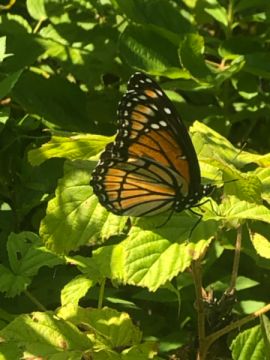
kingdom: Animalia
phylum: Arthropoda
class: Insecta
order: Lepidoptera
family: Nymphalidae
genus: Limenitis
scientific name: Limenitis archippus
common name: Viceroy
